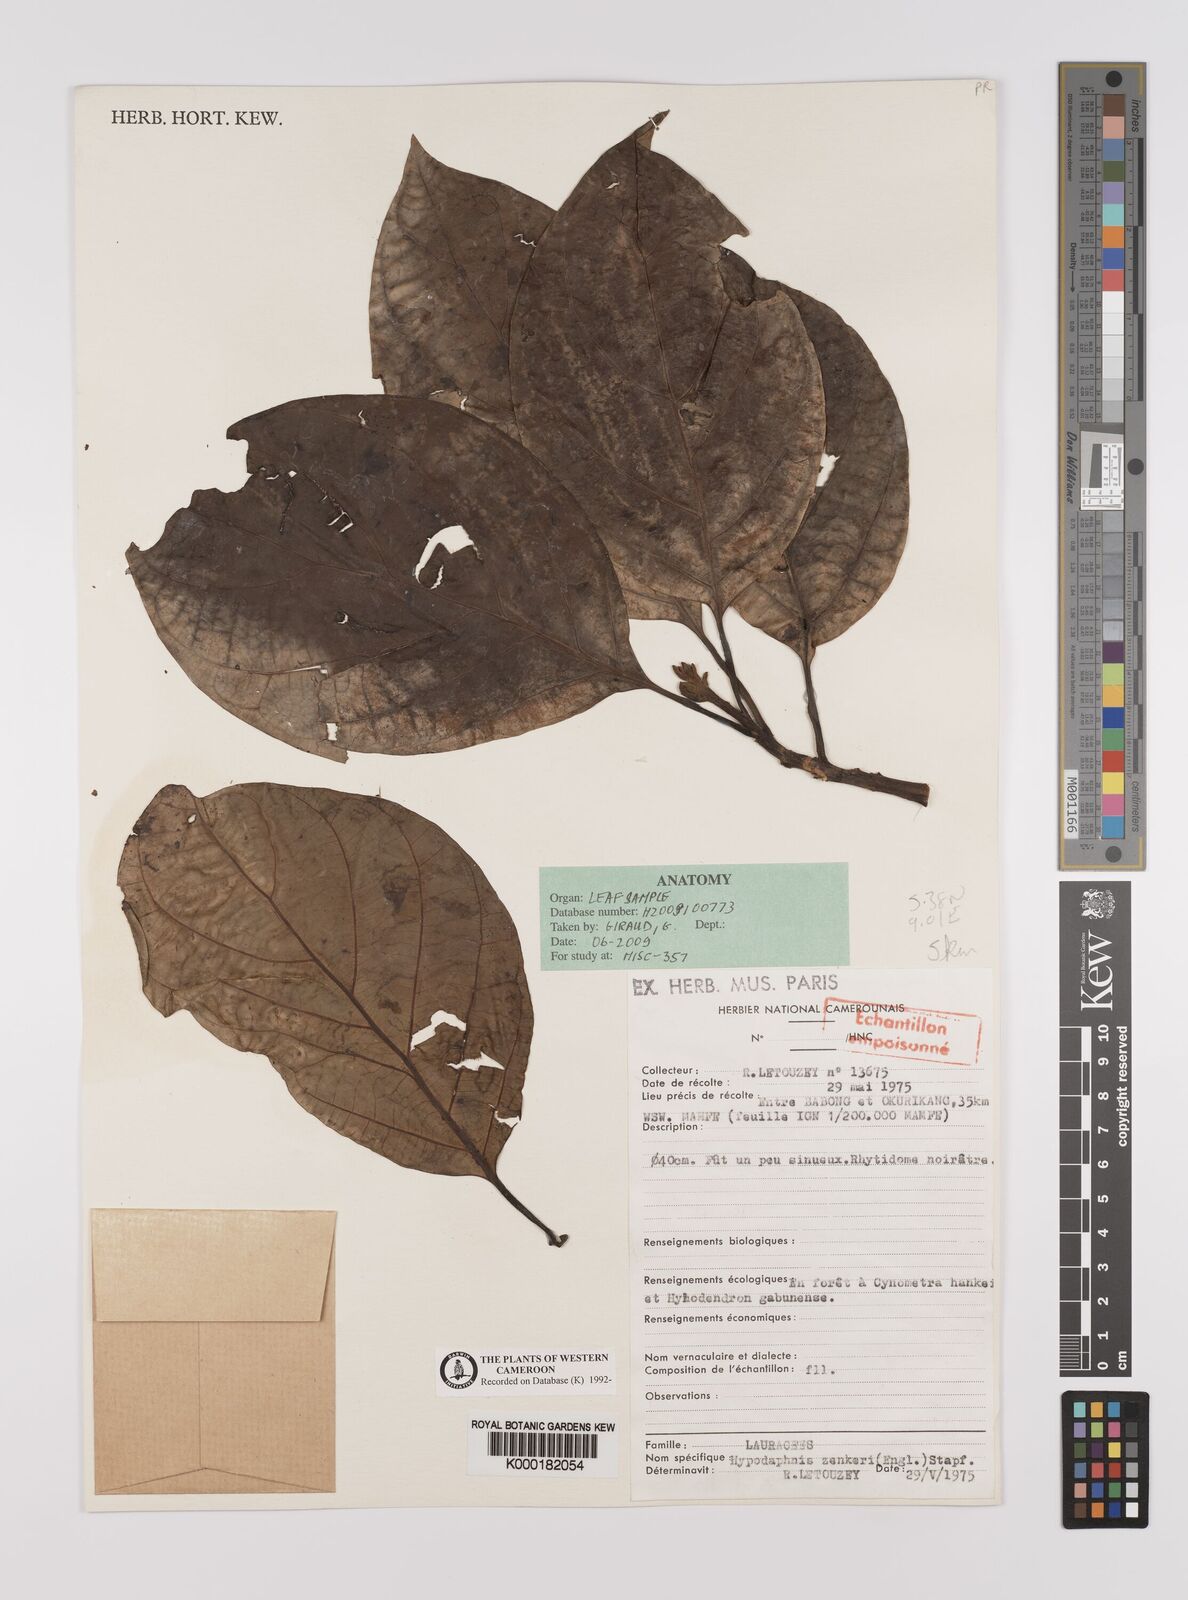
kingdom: Plantae
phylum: Tracheophyta
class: Magnoliopsida
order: Laurales
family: Lauraceae
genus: Hypodaphnis
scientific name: Hypodaphnis zenkeri
